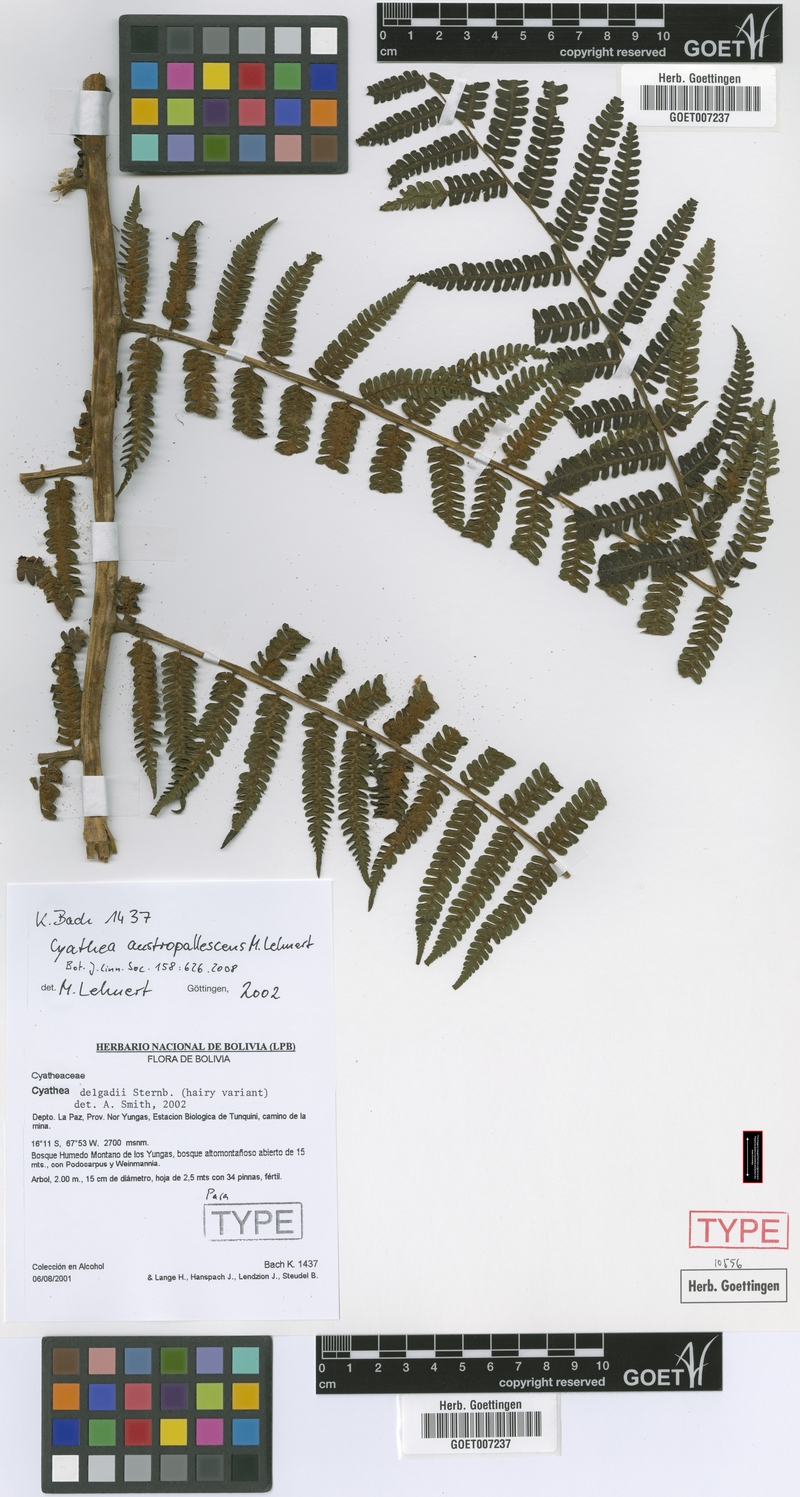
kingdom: Plantae
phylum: Tracheophyta
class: Polypodiopsida
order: Cyatheales
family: Cyatheaceae
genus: Cyathea
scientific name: Cyathea austropallescens
